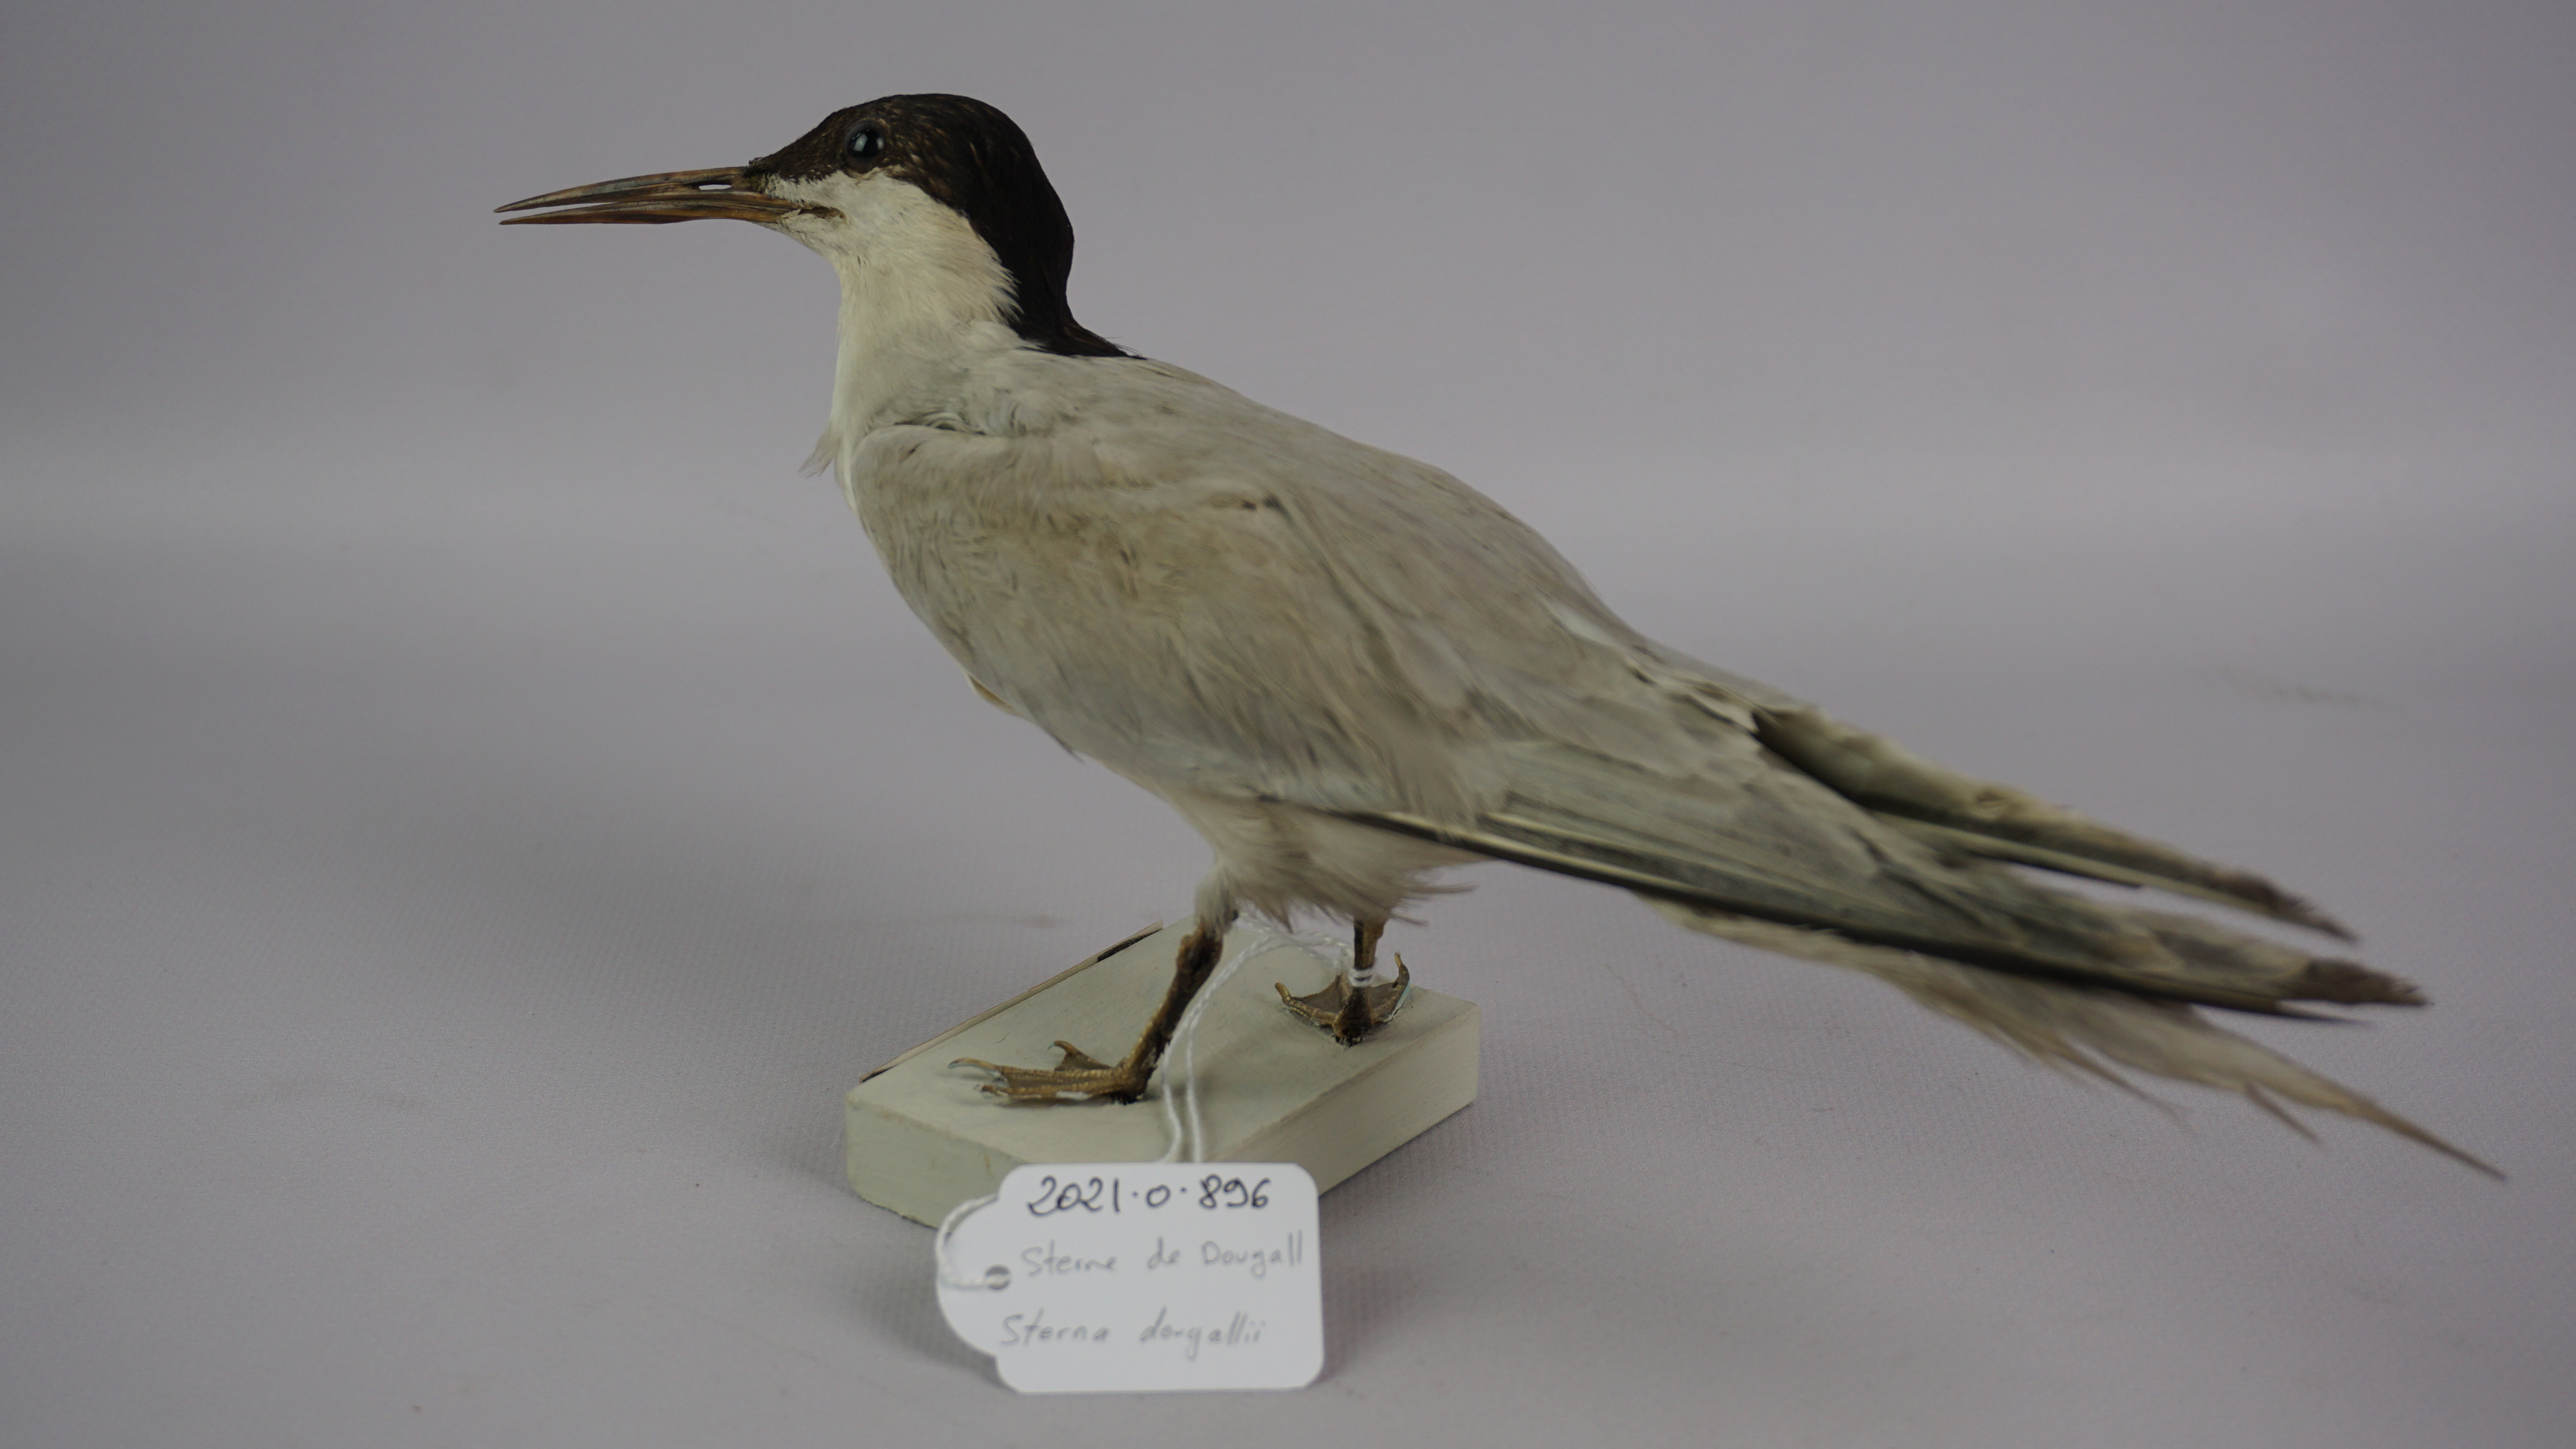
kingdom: Animalia
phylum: Chordata
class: Aves
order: Charadriiformes
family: Laridae
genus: Sterna
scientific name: Sterna dougallii
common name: Roseate tern
